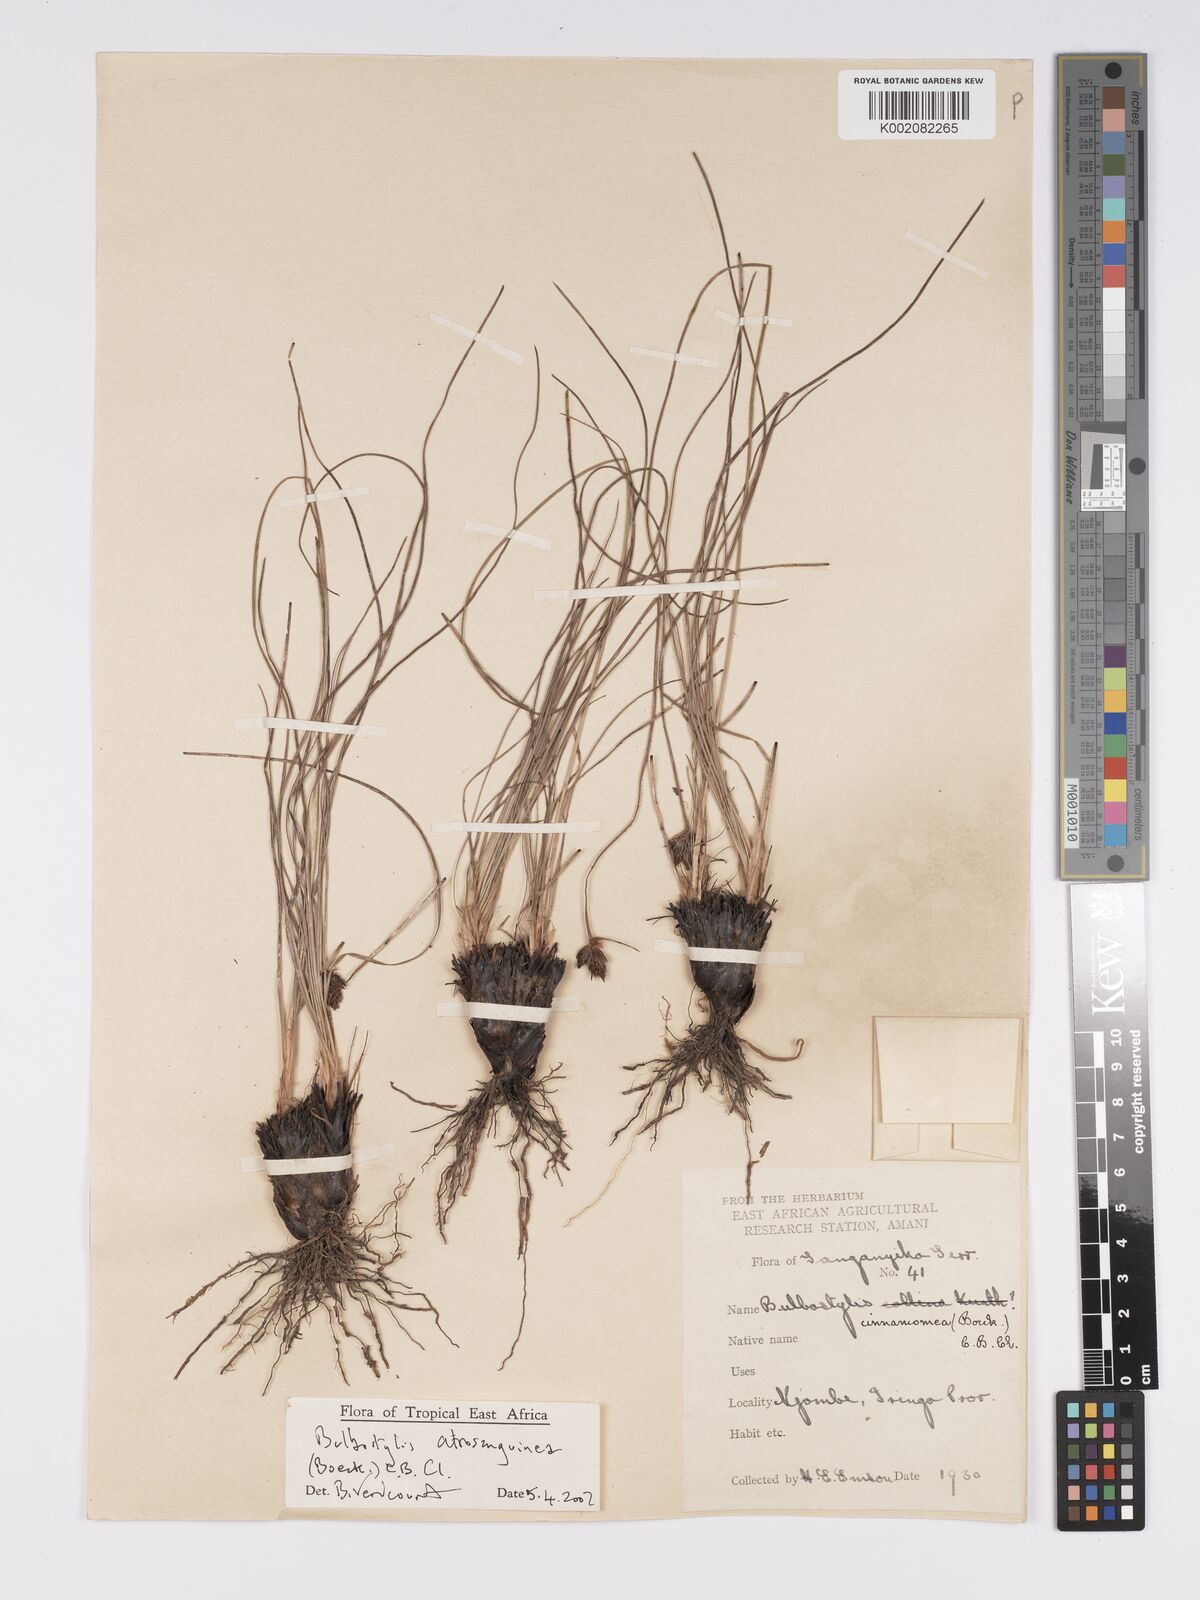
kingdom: Plantae
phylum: Tracheophyta
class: Liliopsida
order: Poales
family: Cyperaceae
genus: Bulbostylis
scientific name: Bulbostylis atrosanguinea
